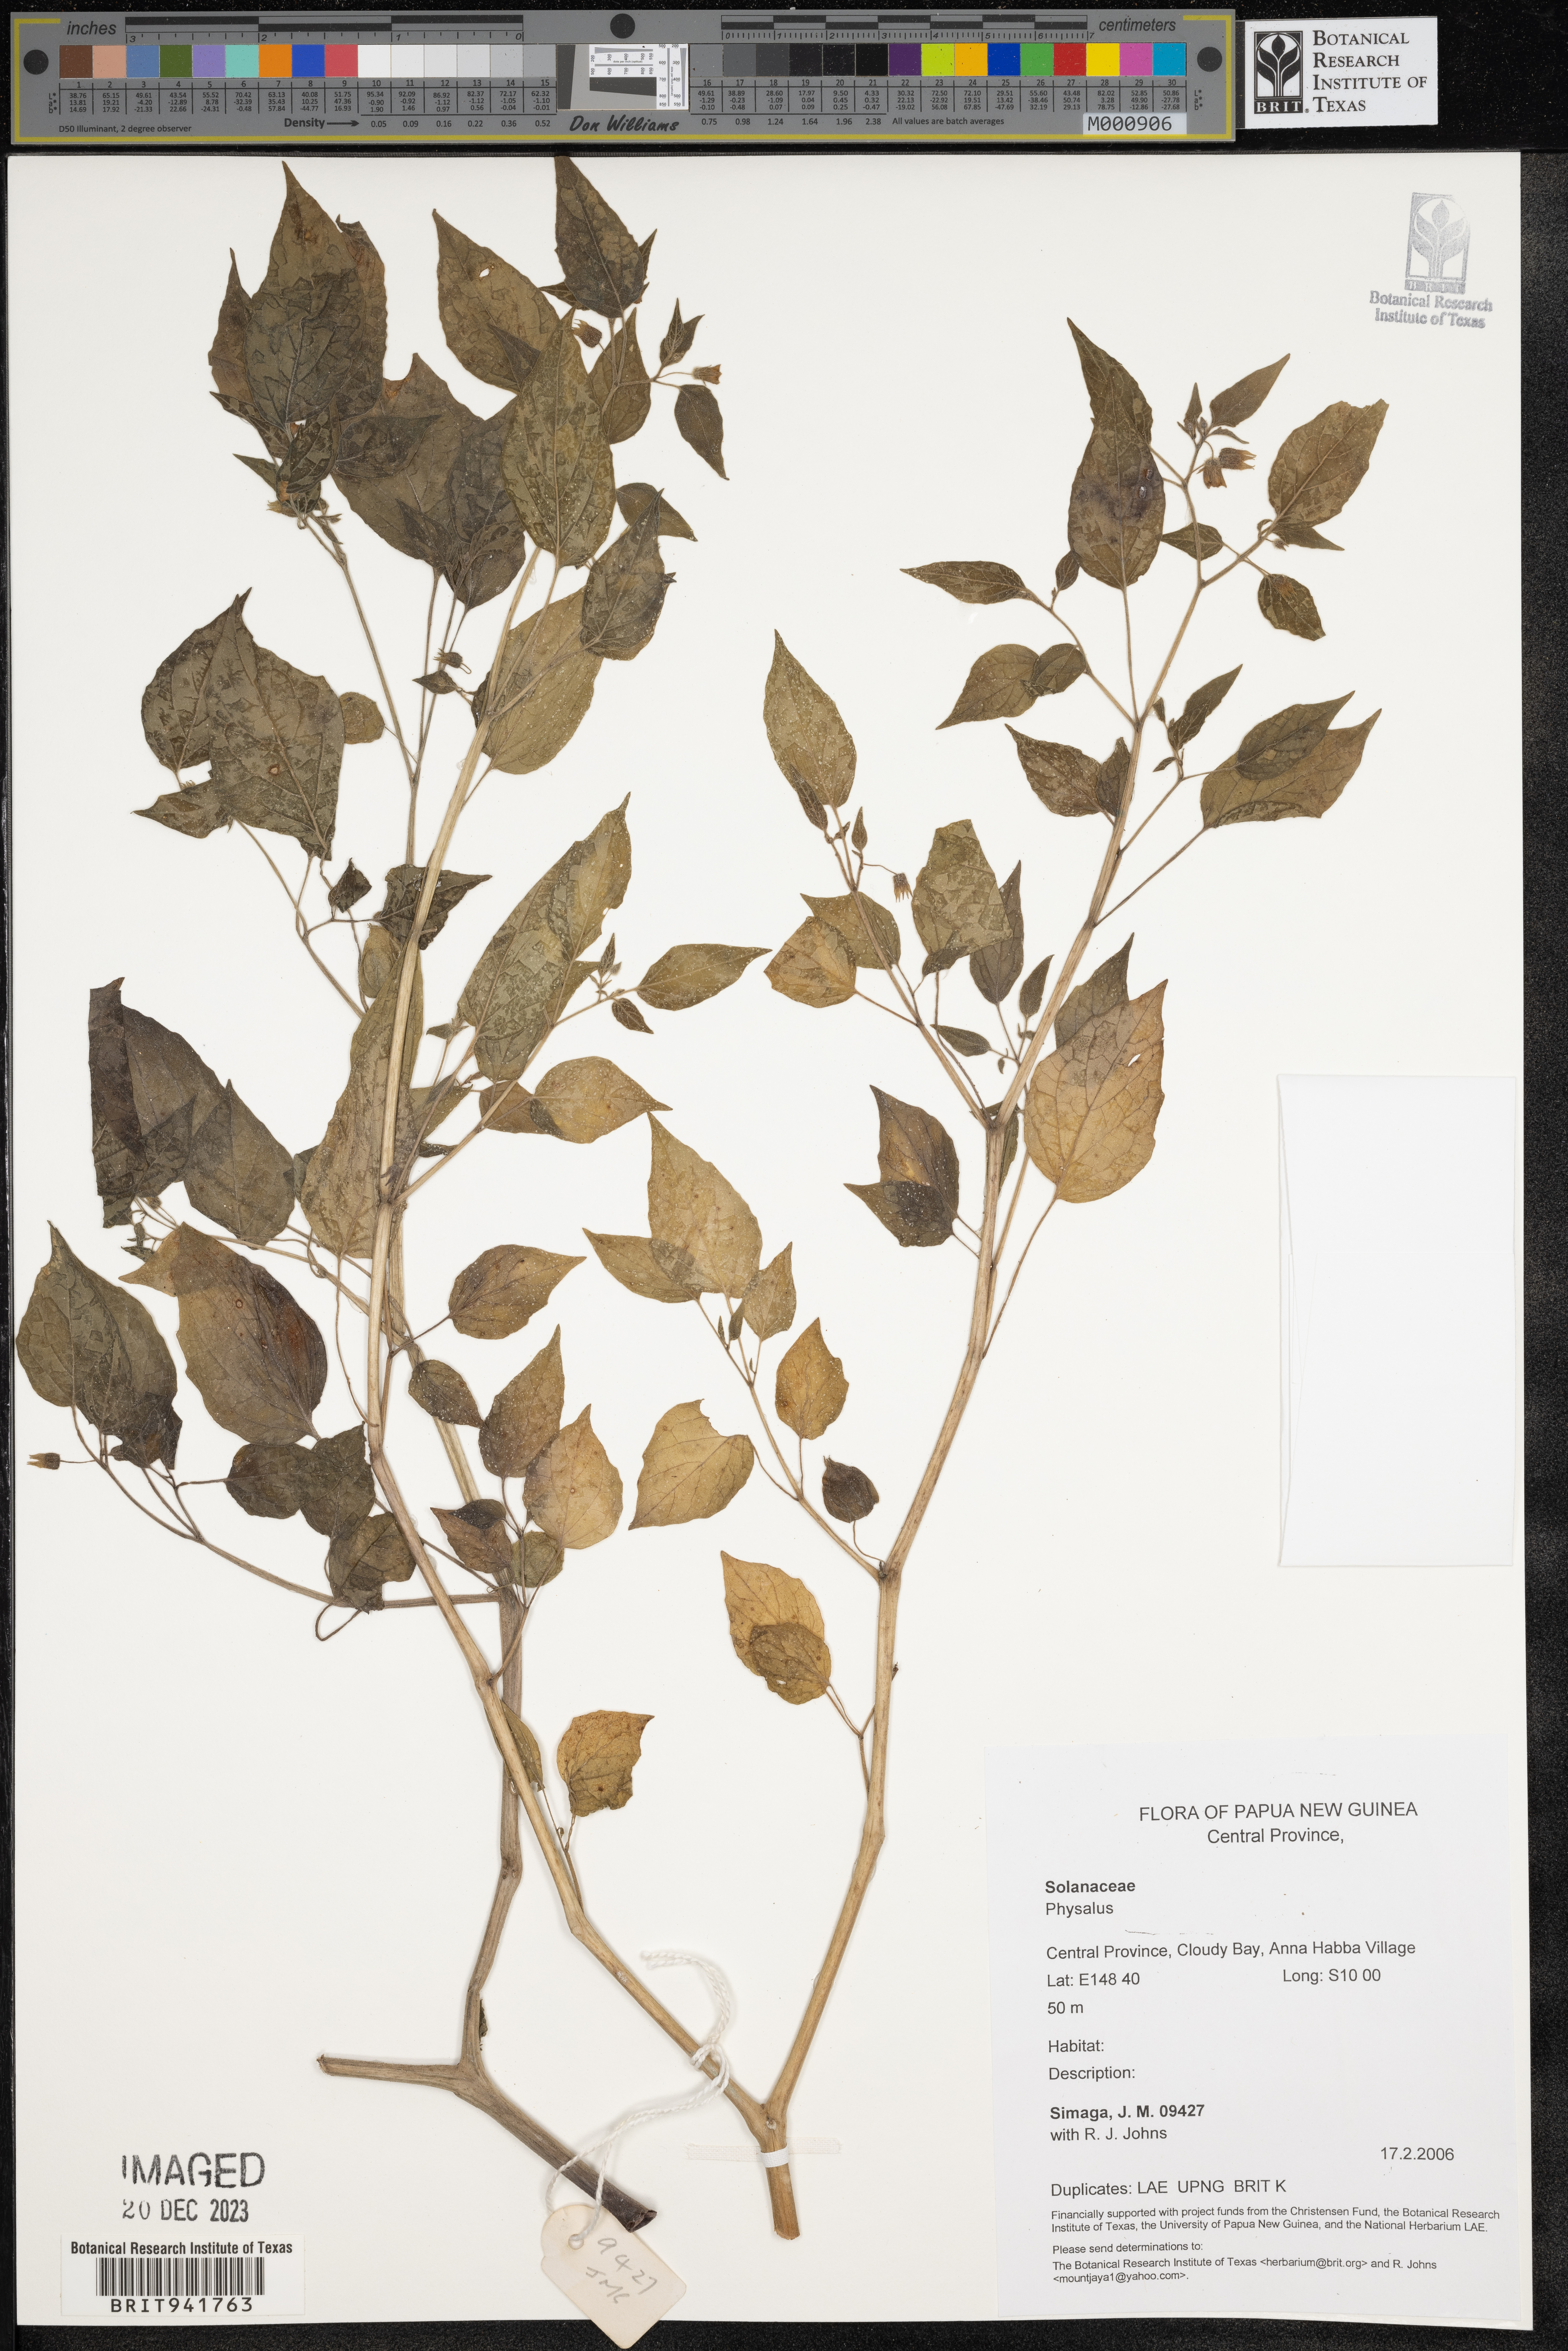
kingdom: Plantae
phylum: Tracheophyta
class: Magnoliopsida
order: Solanales
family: Solanaceae
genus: Physalis
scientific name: Physalis
